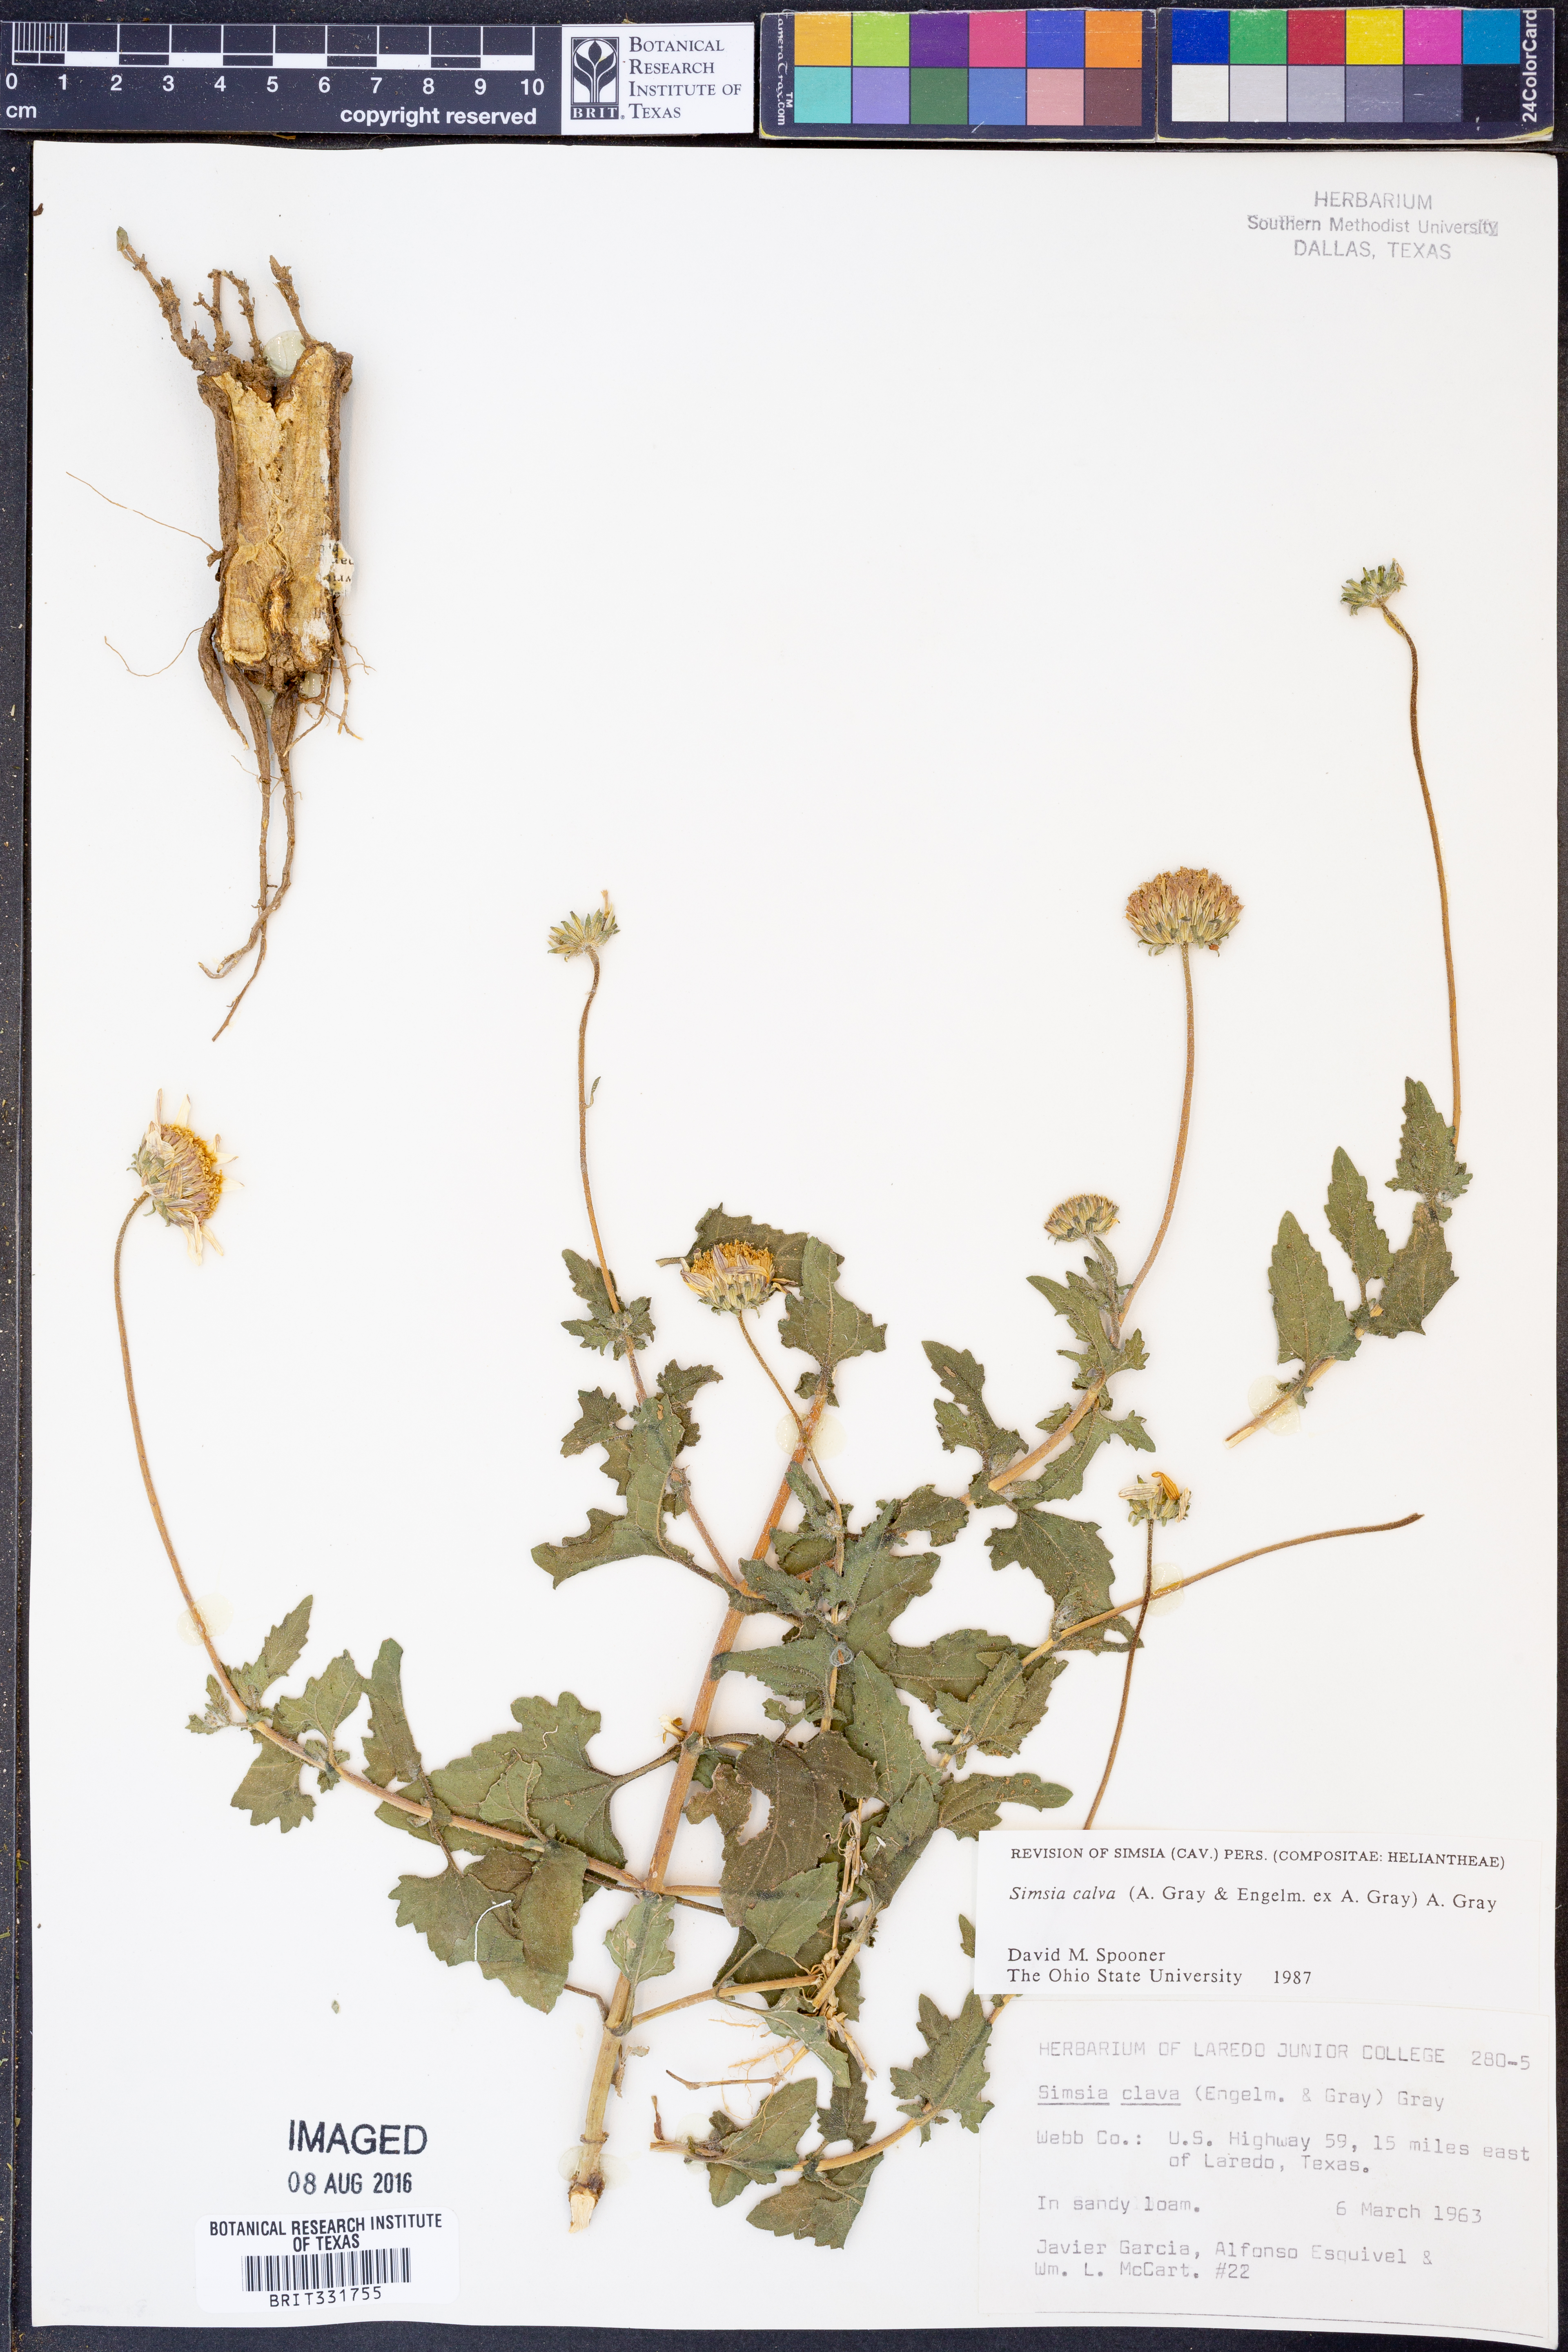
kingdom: Plantae
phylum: Tracheophyta
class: Magnoliopsida
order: Asterales
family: Asteraceae
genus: Simsia
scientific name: Simsia calva
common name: Awnless bush-sunflower
